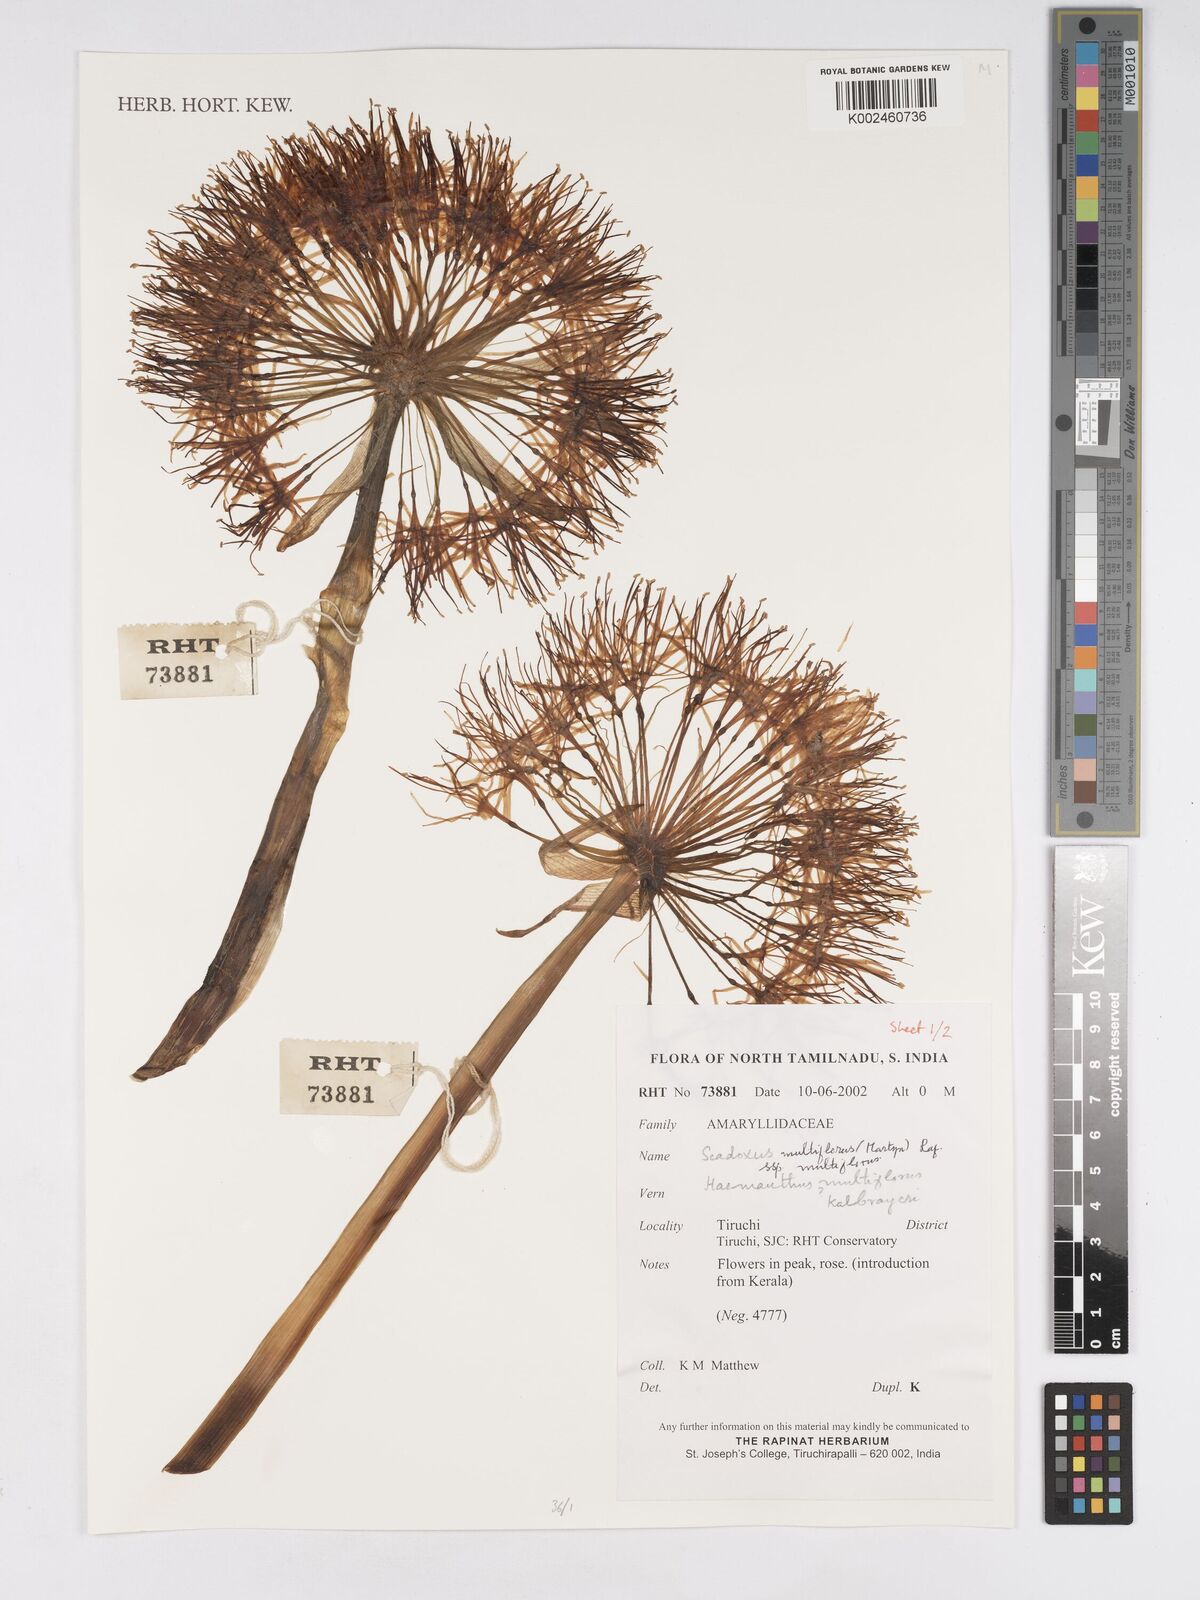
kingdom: Plantae
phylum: Tracheophyta
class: Liliopsida
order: Asparagales
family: Amaryllidaceae
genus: Scadoxus
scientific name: Scadoxus multiflorus
